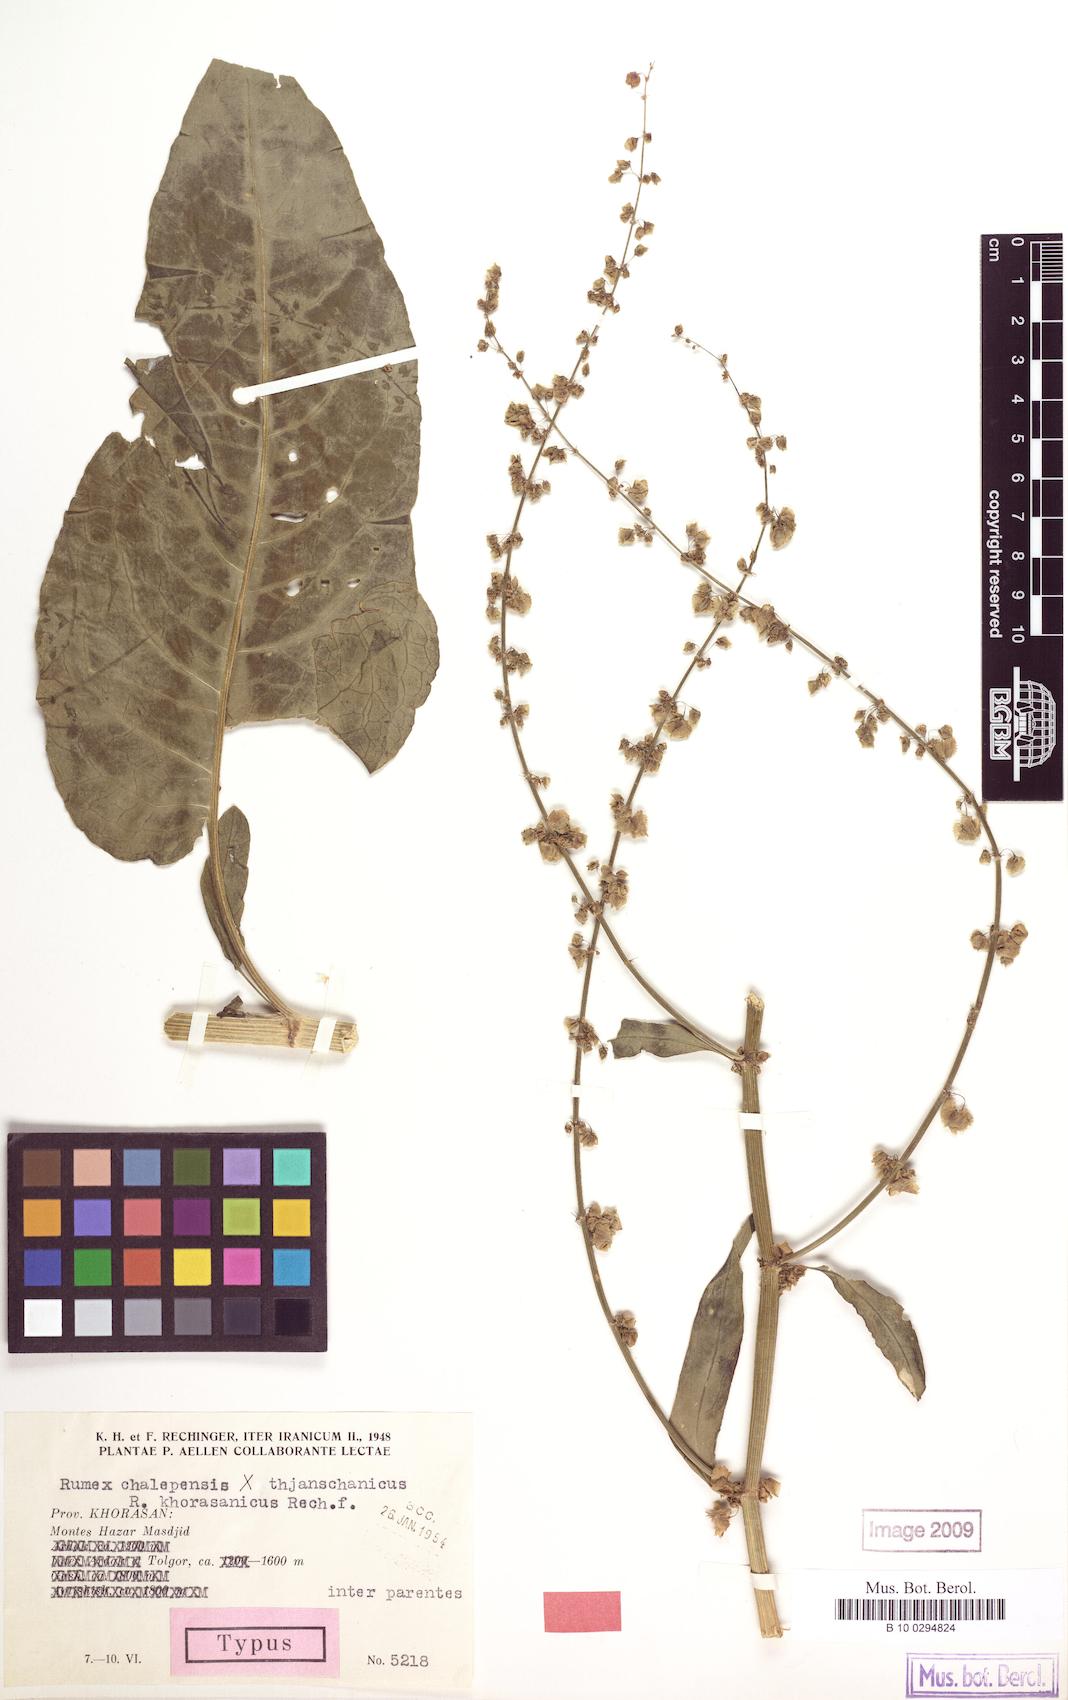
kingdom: Plantae
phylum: Tracheophyta
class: Magnoliopsida
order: Caryophyllales
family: Polygonaceae
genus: Rumex
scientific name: Rumex chalepensis
